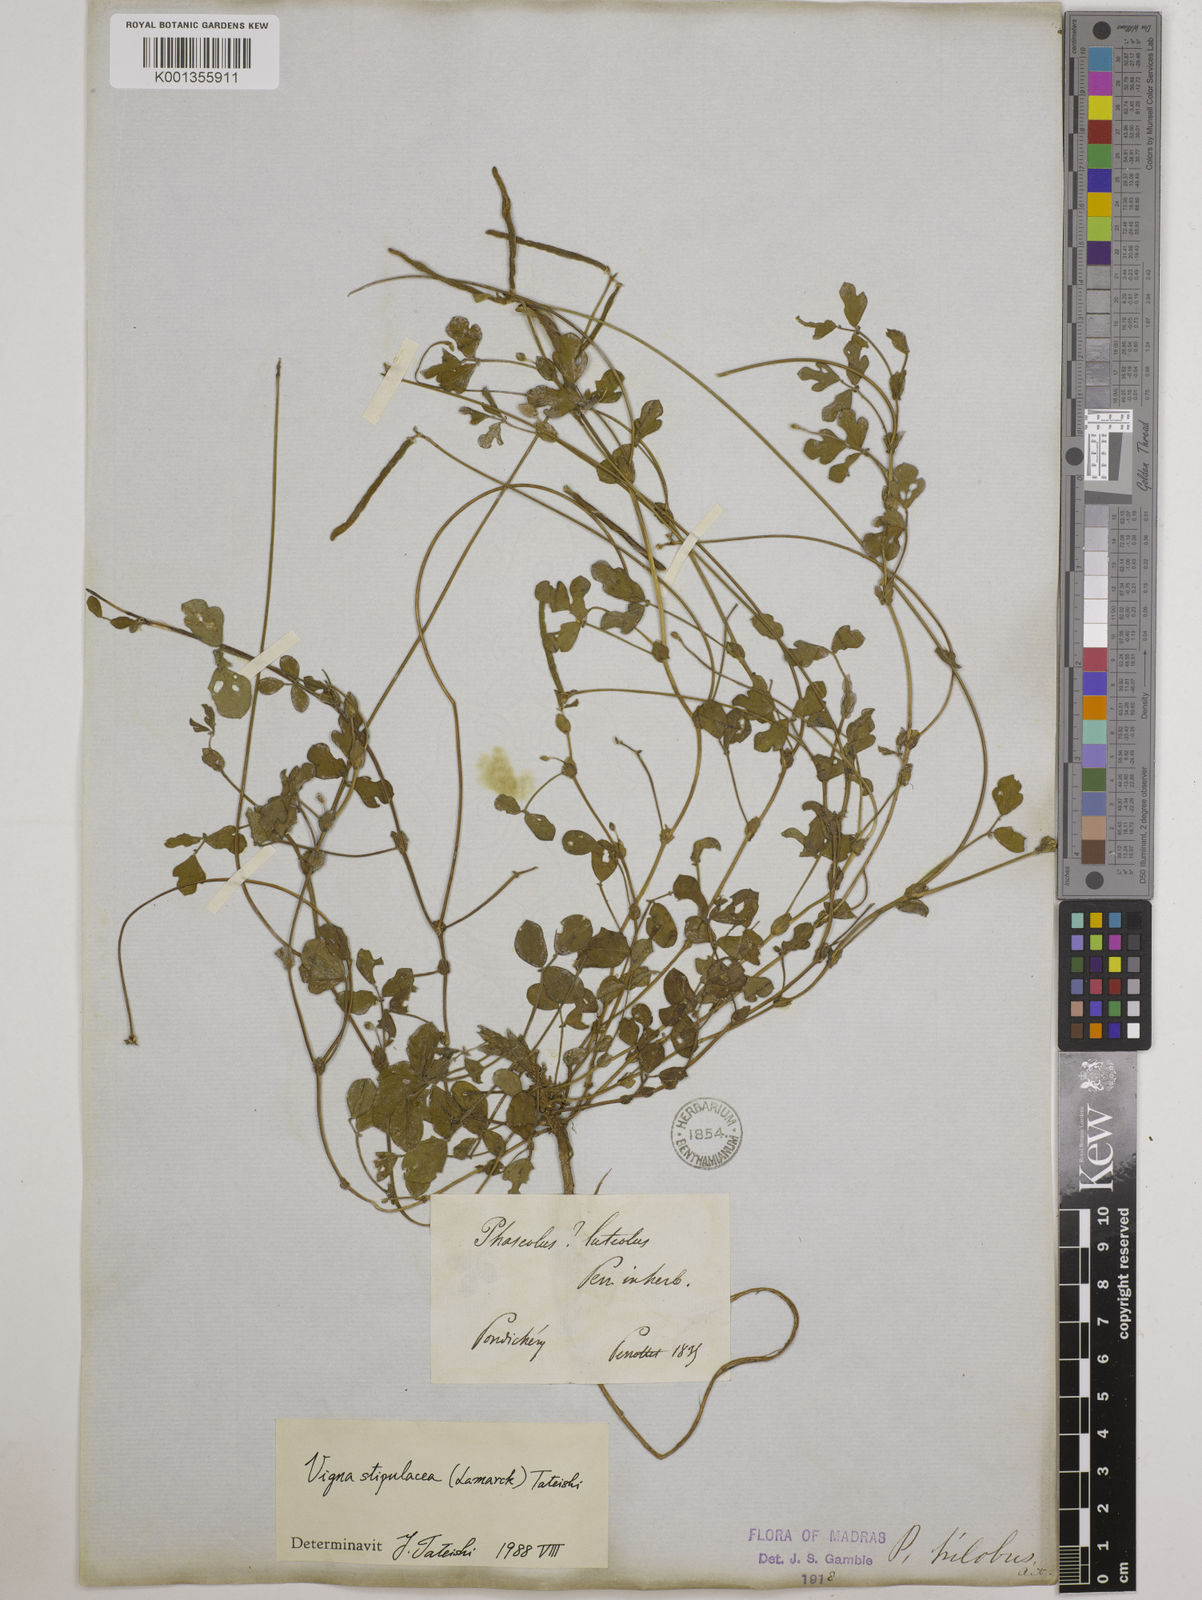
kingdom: Plantae
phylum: Tracheophyta
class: Magnoliopsida
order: Fabales
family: Fabaceae
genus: Pueraria
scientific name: Pueraria montana
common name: Kudzu
